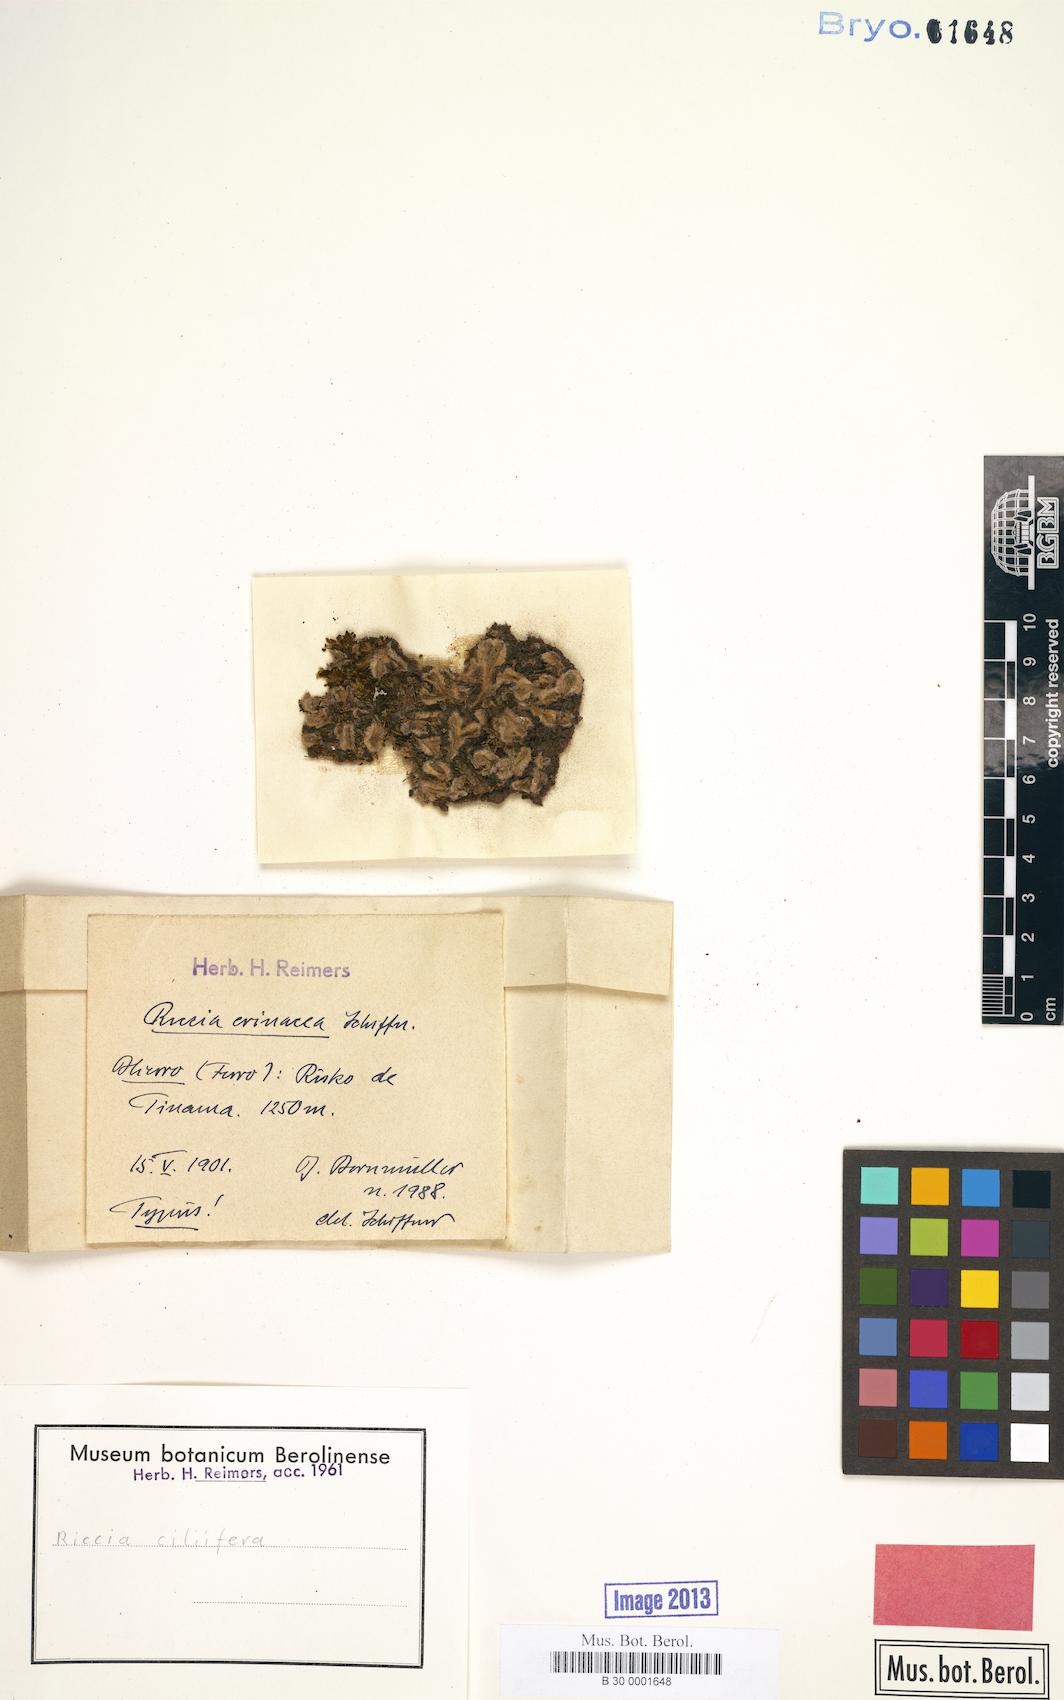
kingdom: Plantae
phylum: Marchantiophyta
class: Marchantiopsida
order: Marchantiales
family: Ricciaceae
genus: Riccia
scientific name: Riccia ciliifera
